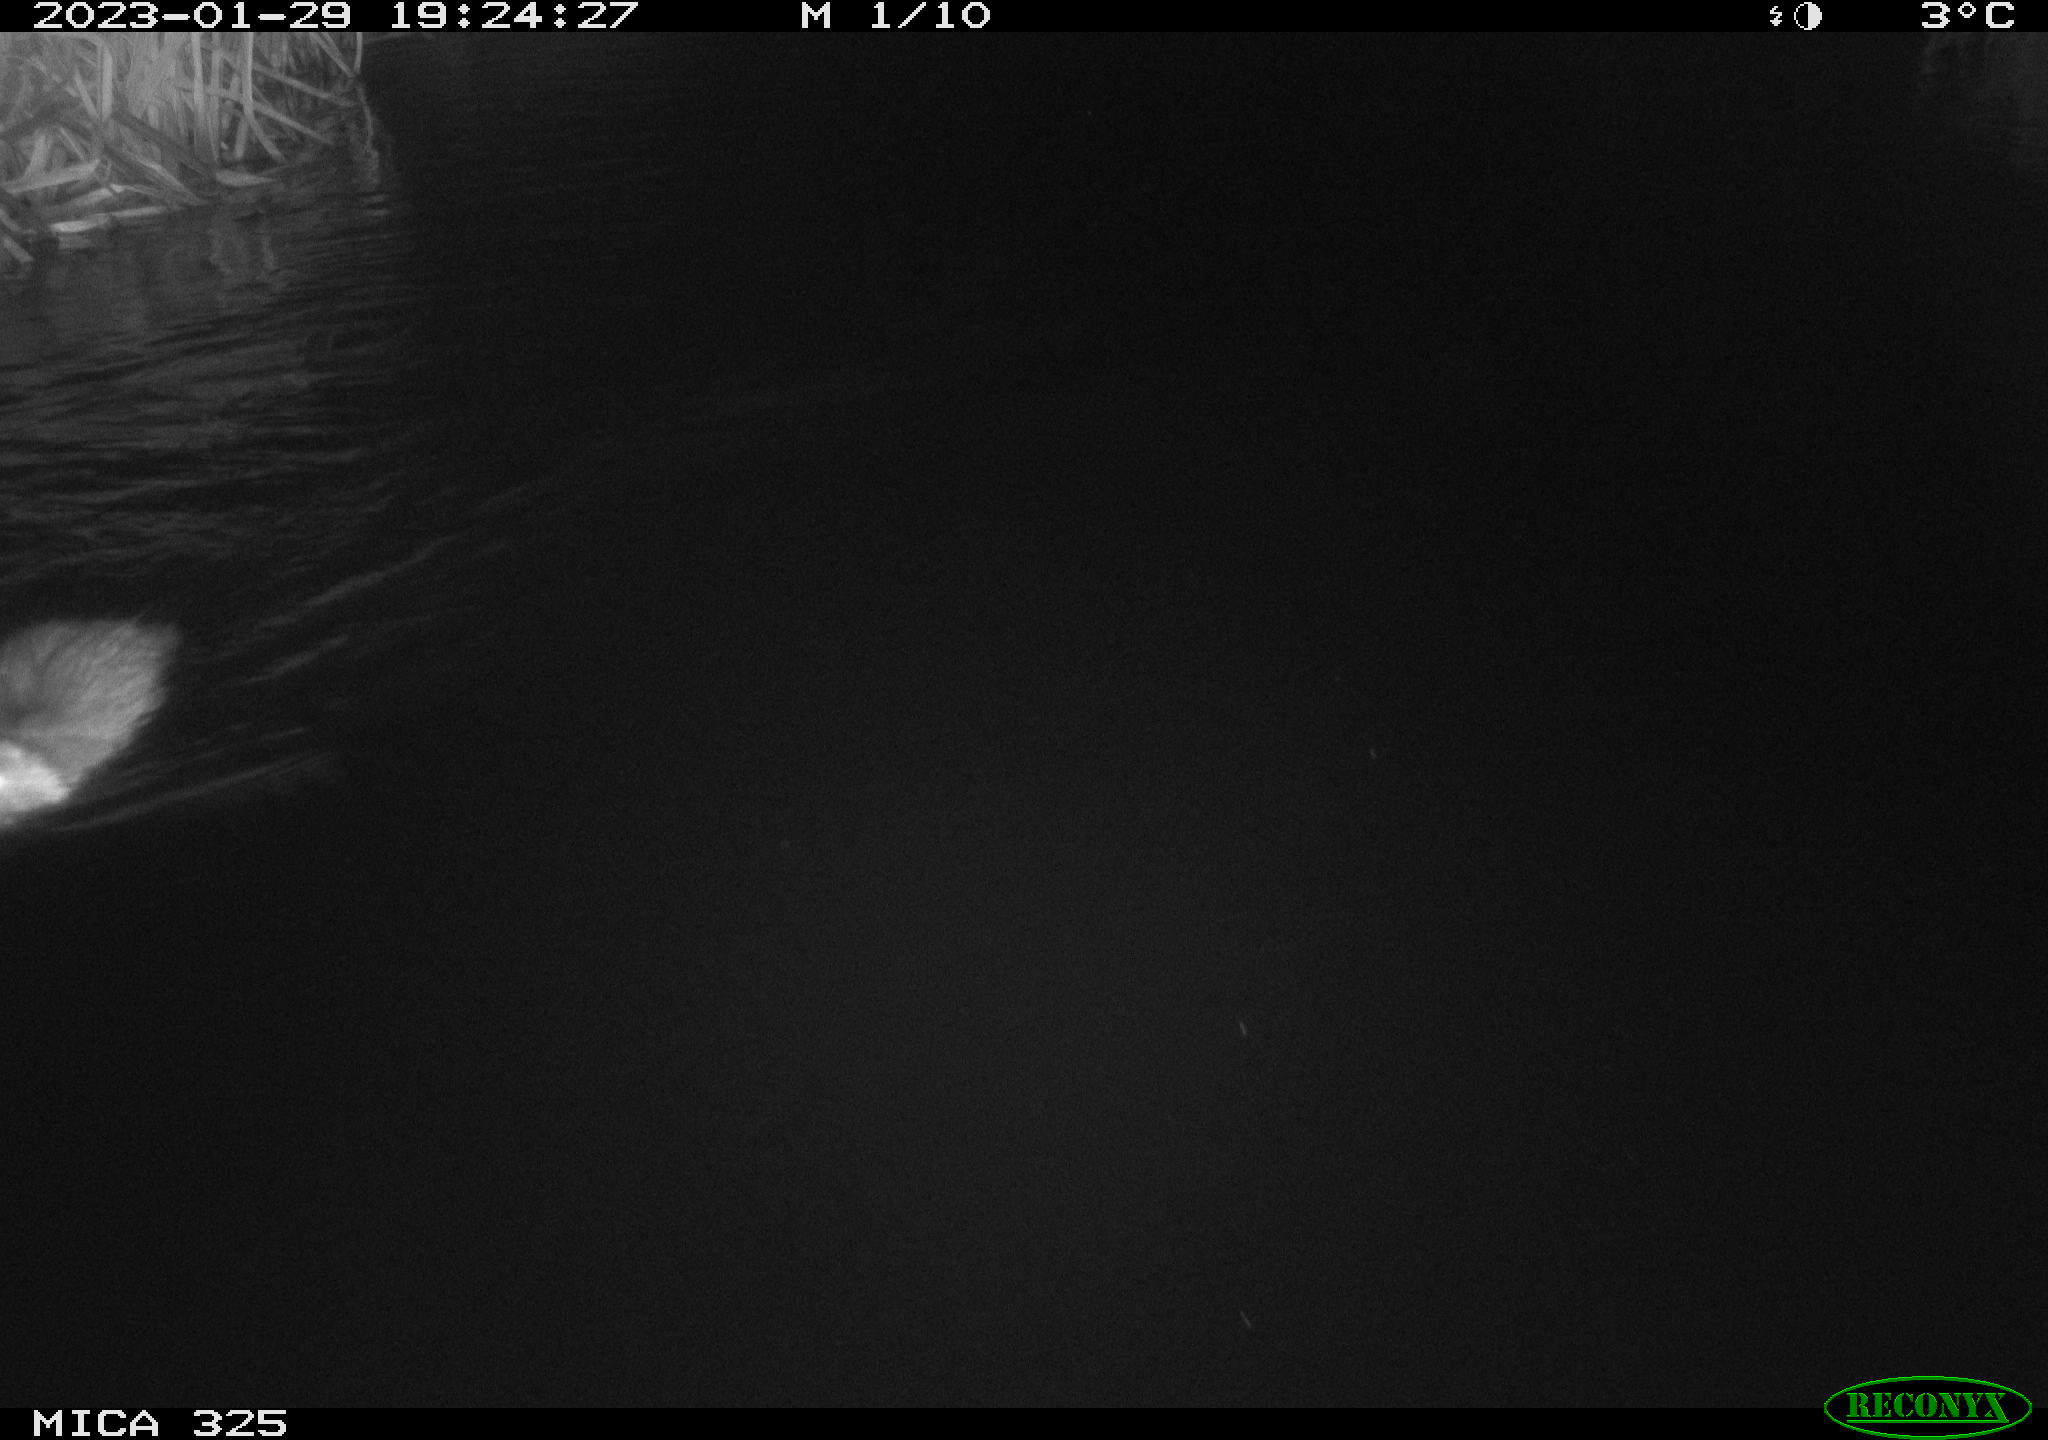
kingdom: Animalia
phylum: Chordata
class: Mammalia
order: Rodentia
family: Myocastoridae
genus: Myocastor
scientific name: Myocastor coypus
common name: Coypu
